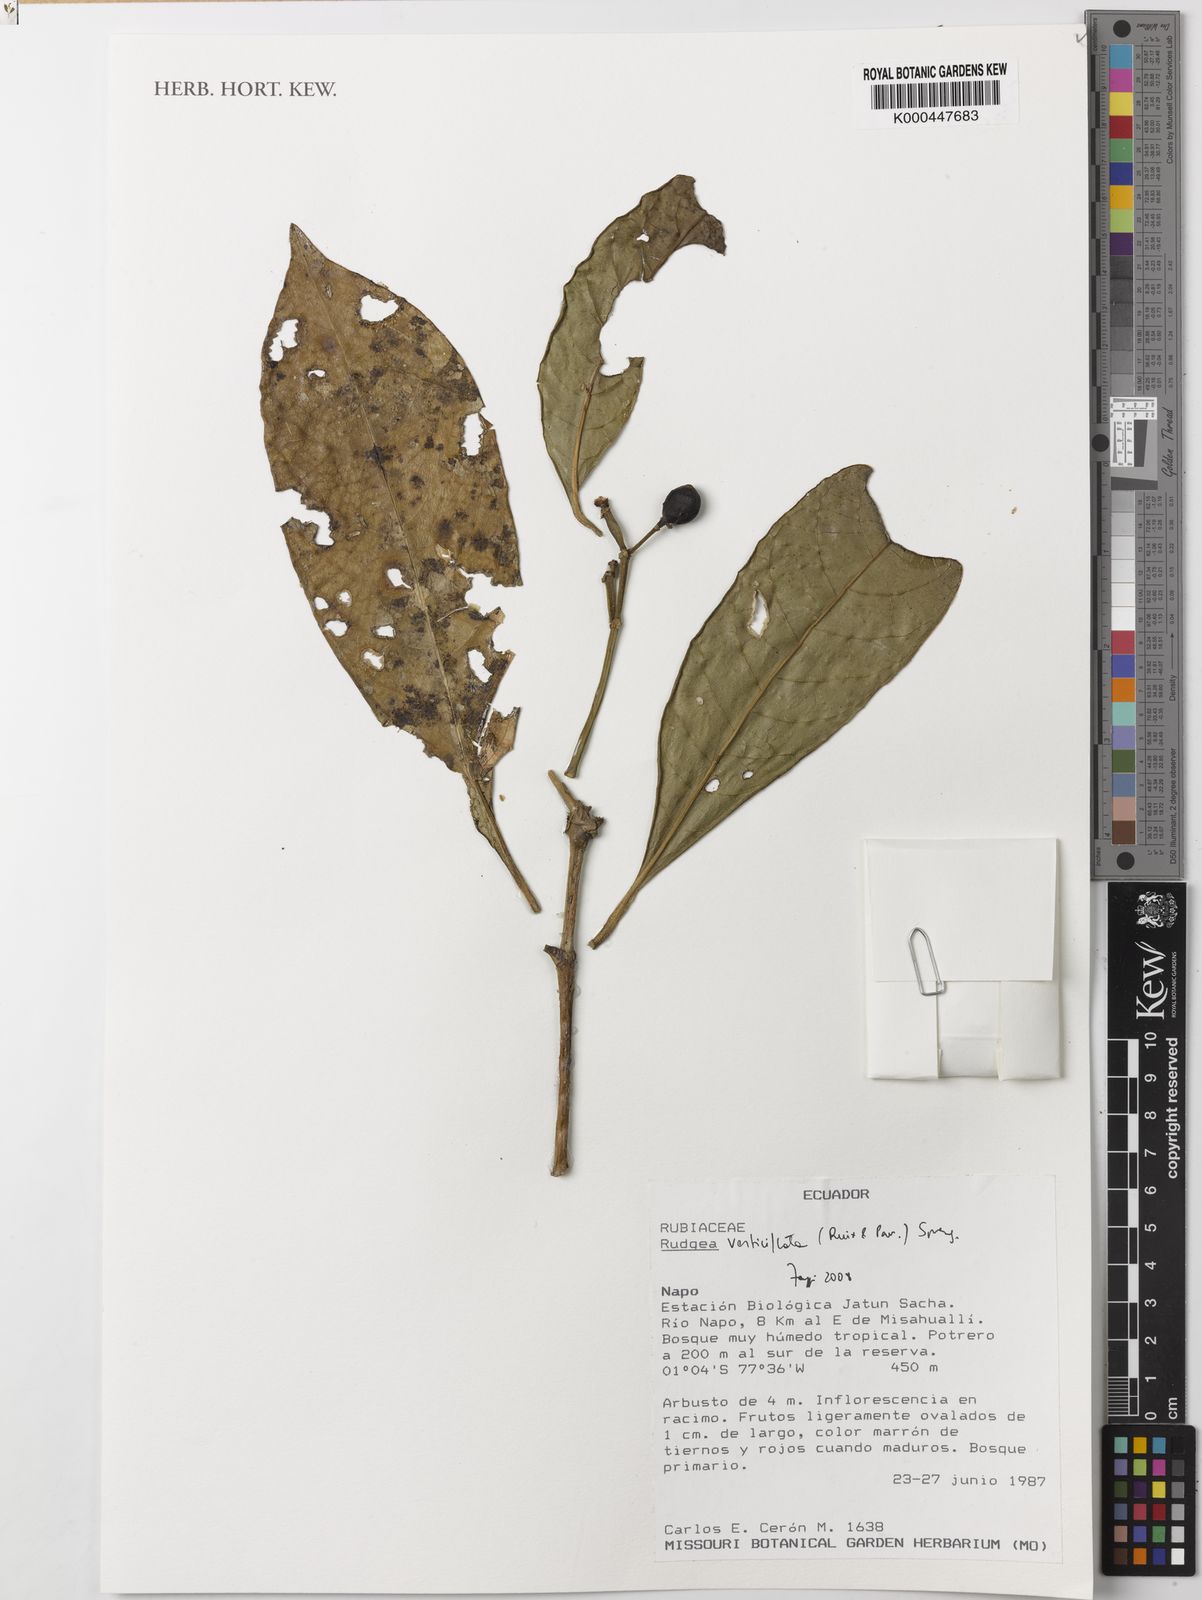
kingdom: Plantae
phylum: Tracheophyta
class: Magnoliopsida
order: Gentianales
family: Rubiaceae
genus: Rudgea
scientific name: Rudgea verticillata
